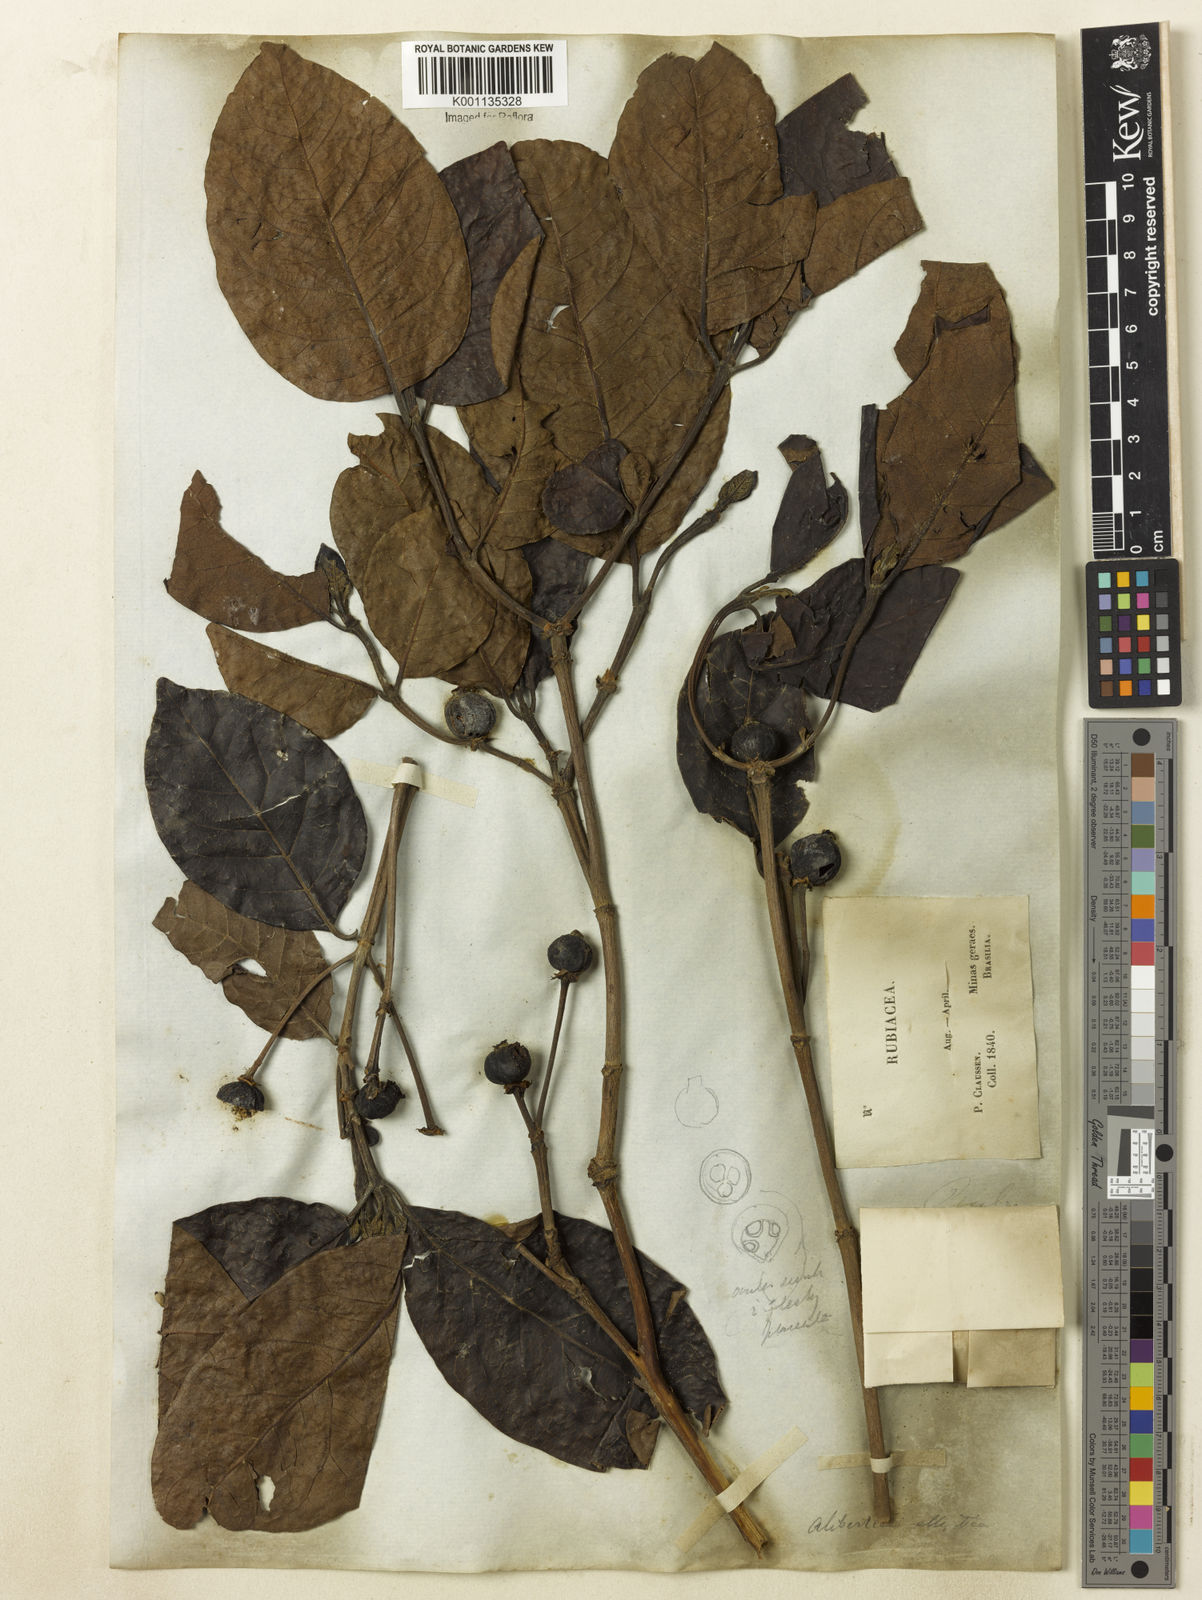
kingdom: Plantae
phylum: Tracheophyta
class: Magnoliopsida
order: Gentianales
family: Rubiaceae
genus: Cordiera
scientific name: Cordiera elliptica
